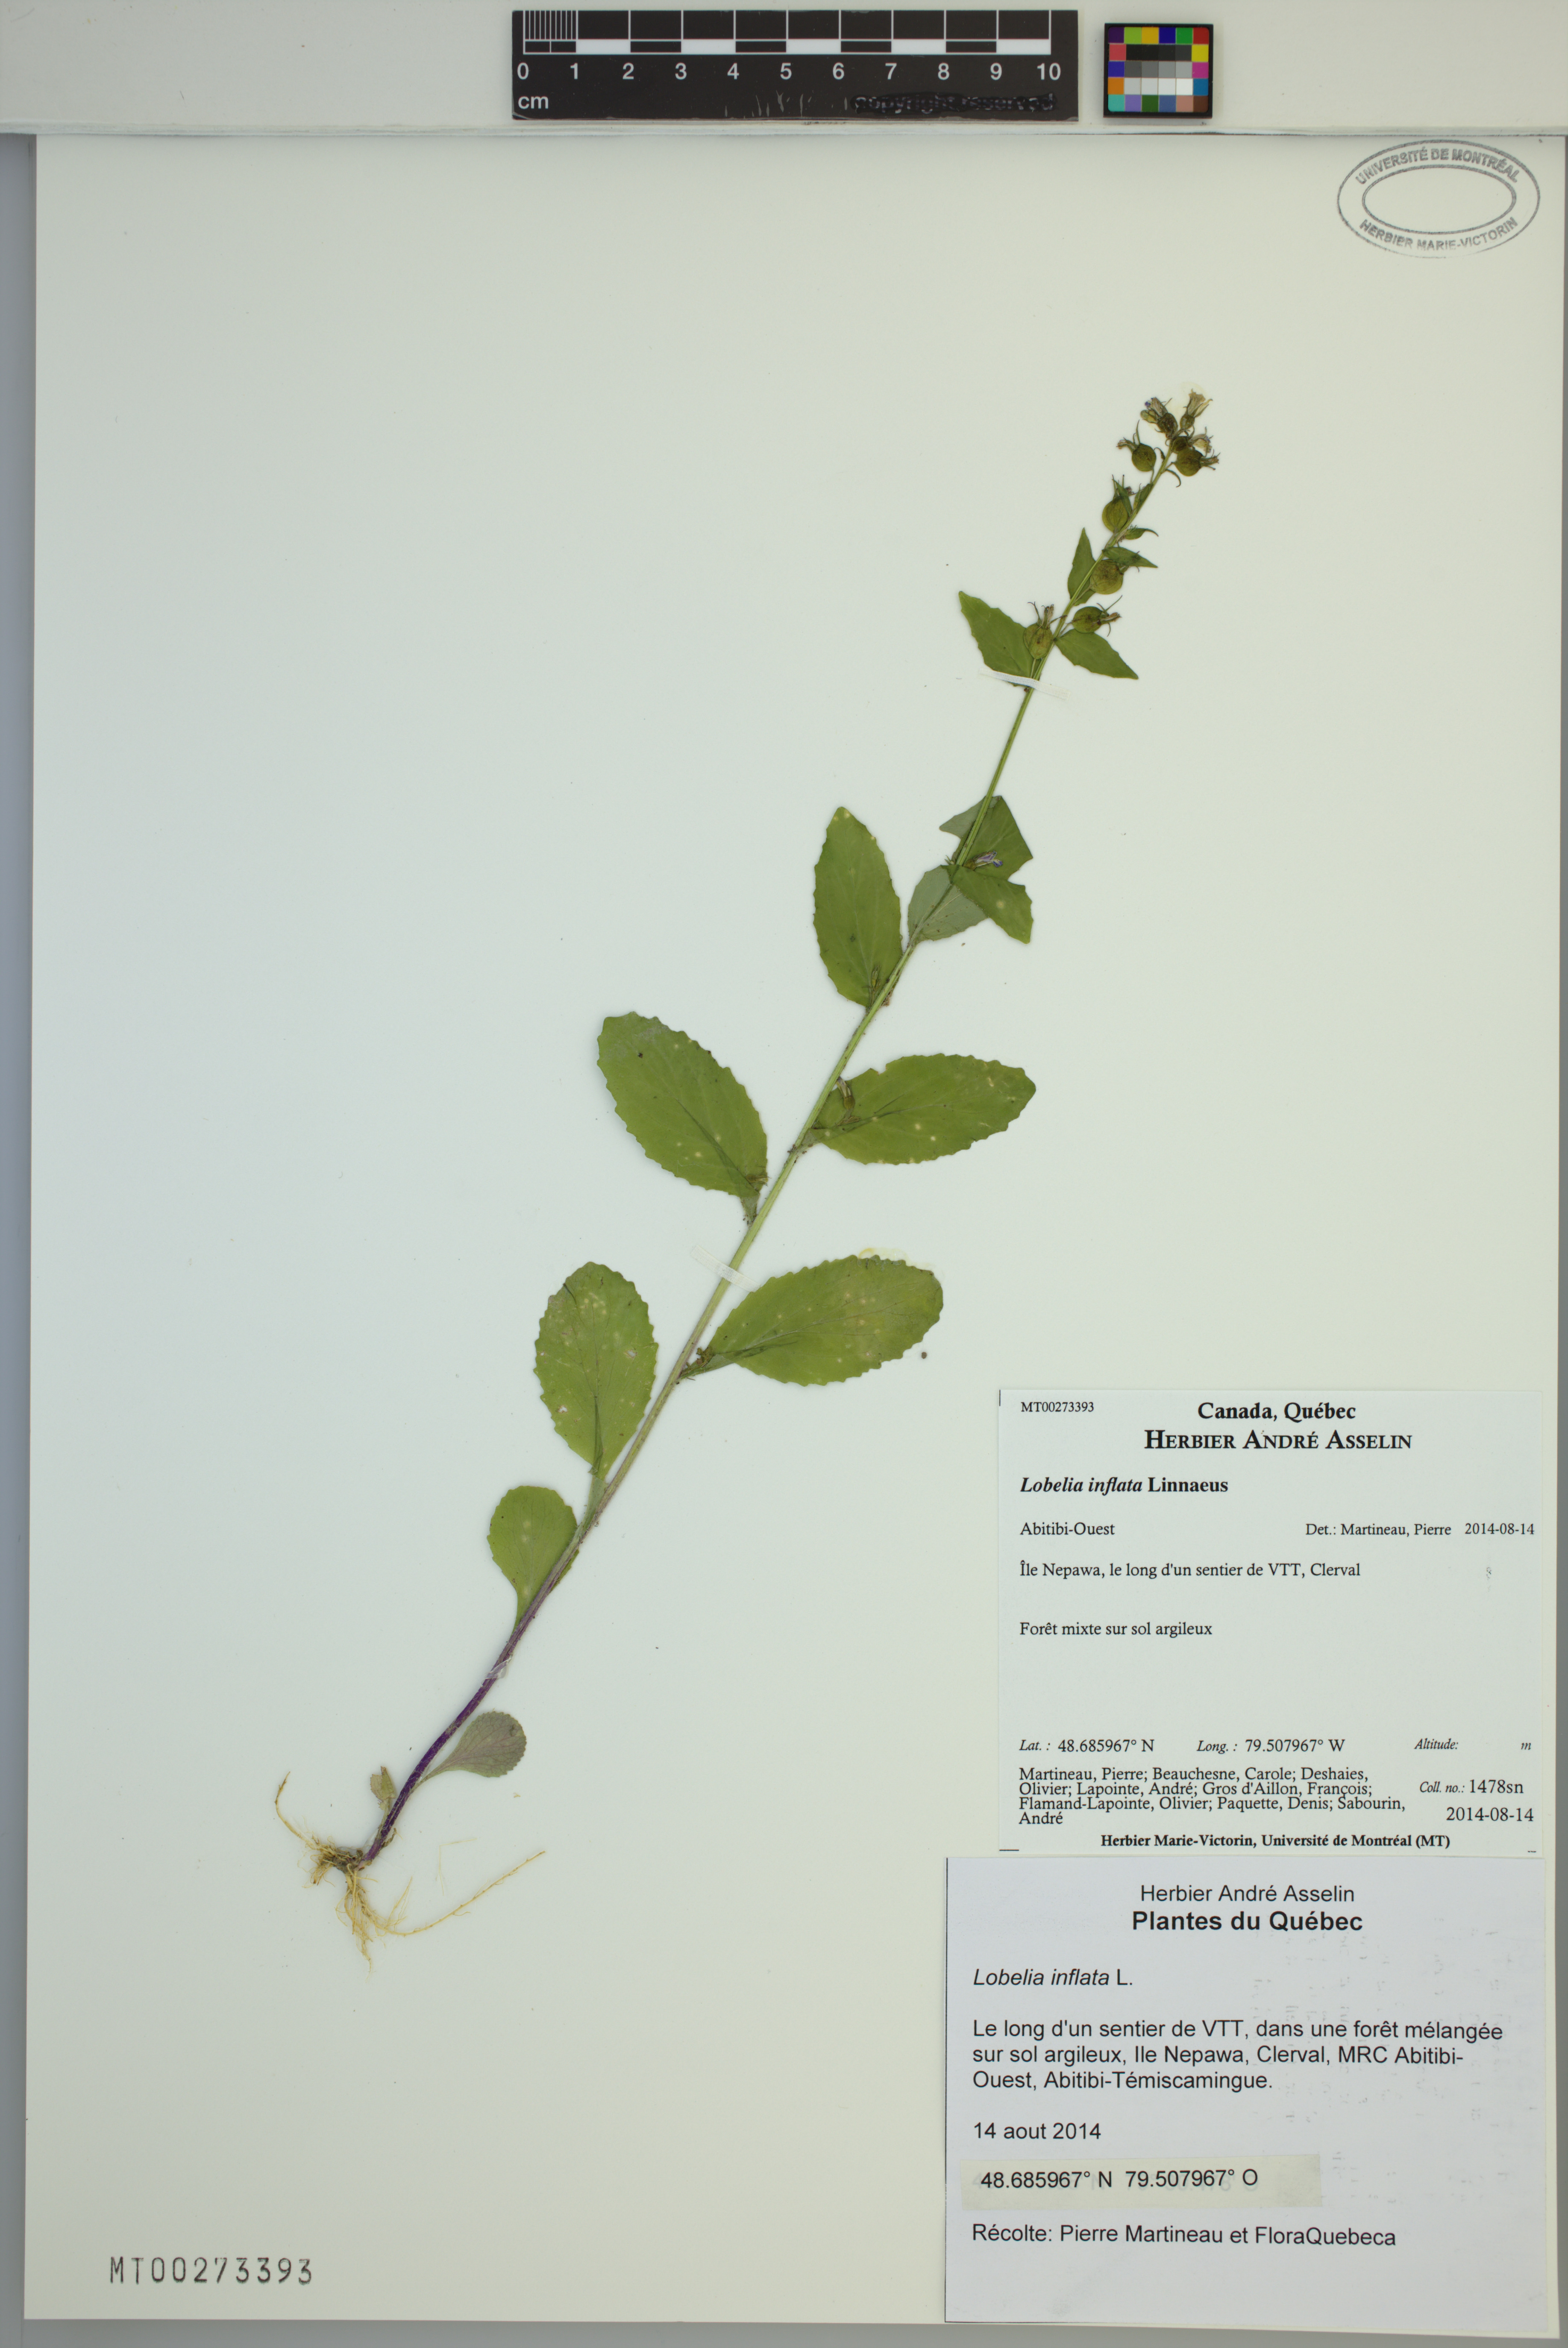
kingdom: Plantae
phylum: Tracheophyta
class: Magnoliopsida
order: Asterales
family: Campanulaceae
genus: Lobelia
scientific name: Lobelia inflata
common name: Indian tobacco
